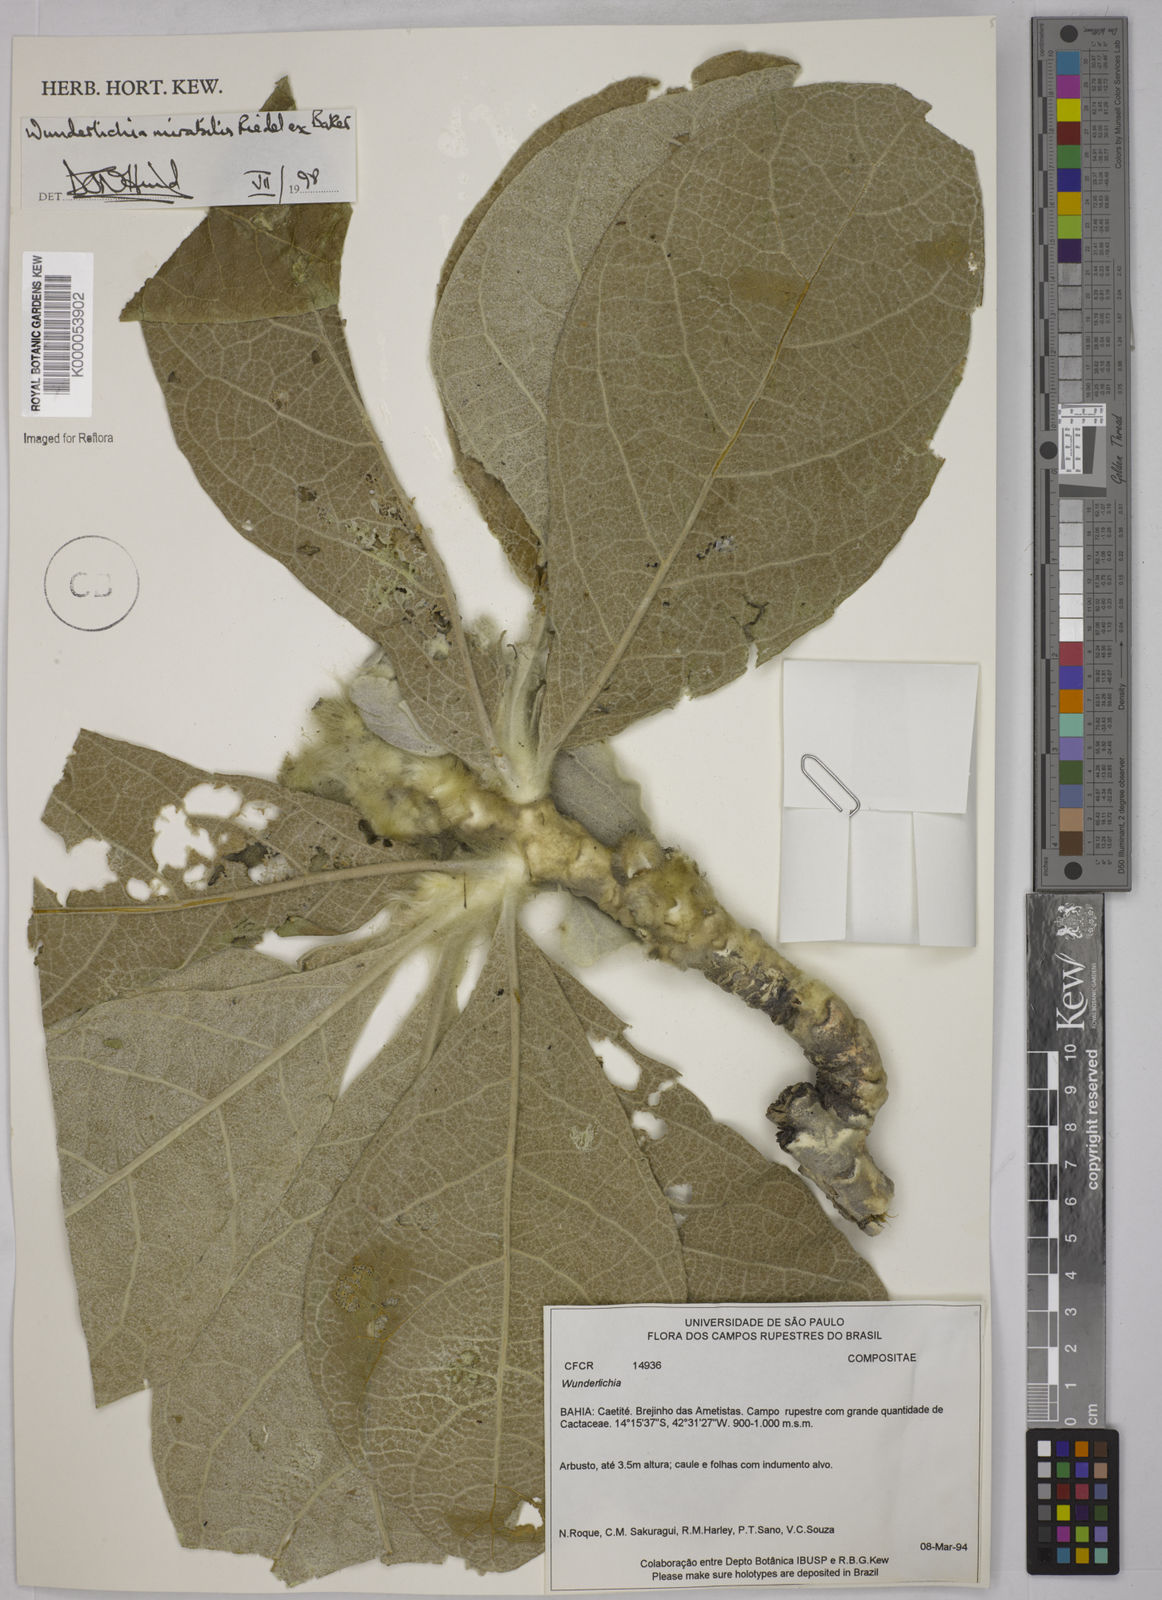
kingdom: Plantae
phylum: Tracheophyta
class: Magnoliopsida
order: Asterales
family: Asteraceae
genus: Wunderlichia
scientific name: Wunderlichia mirabilis
